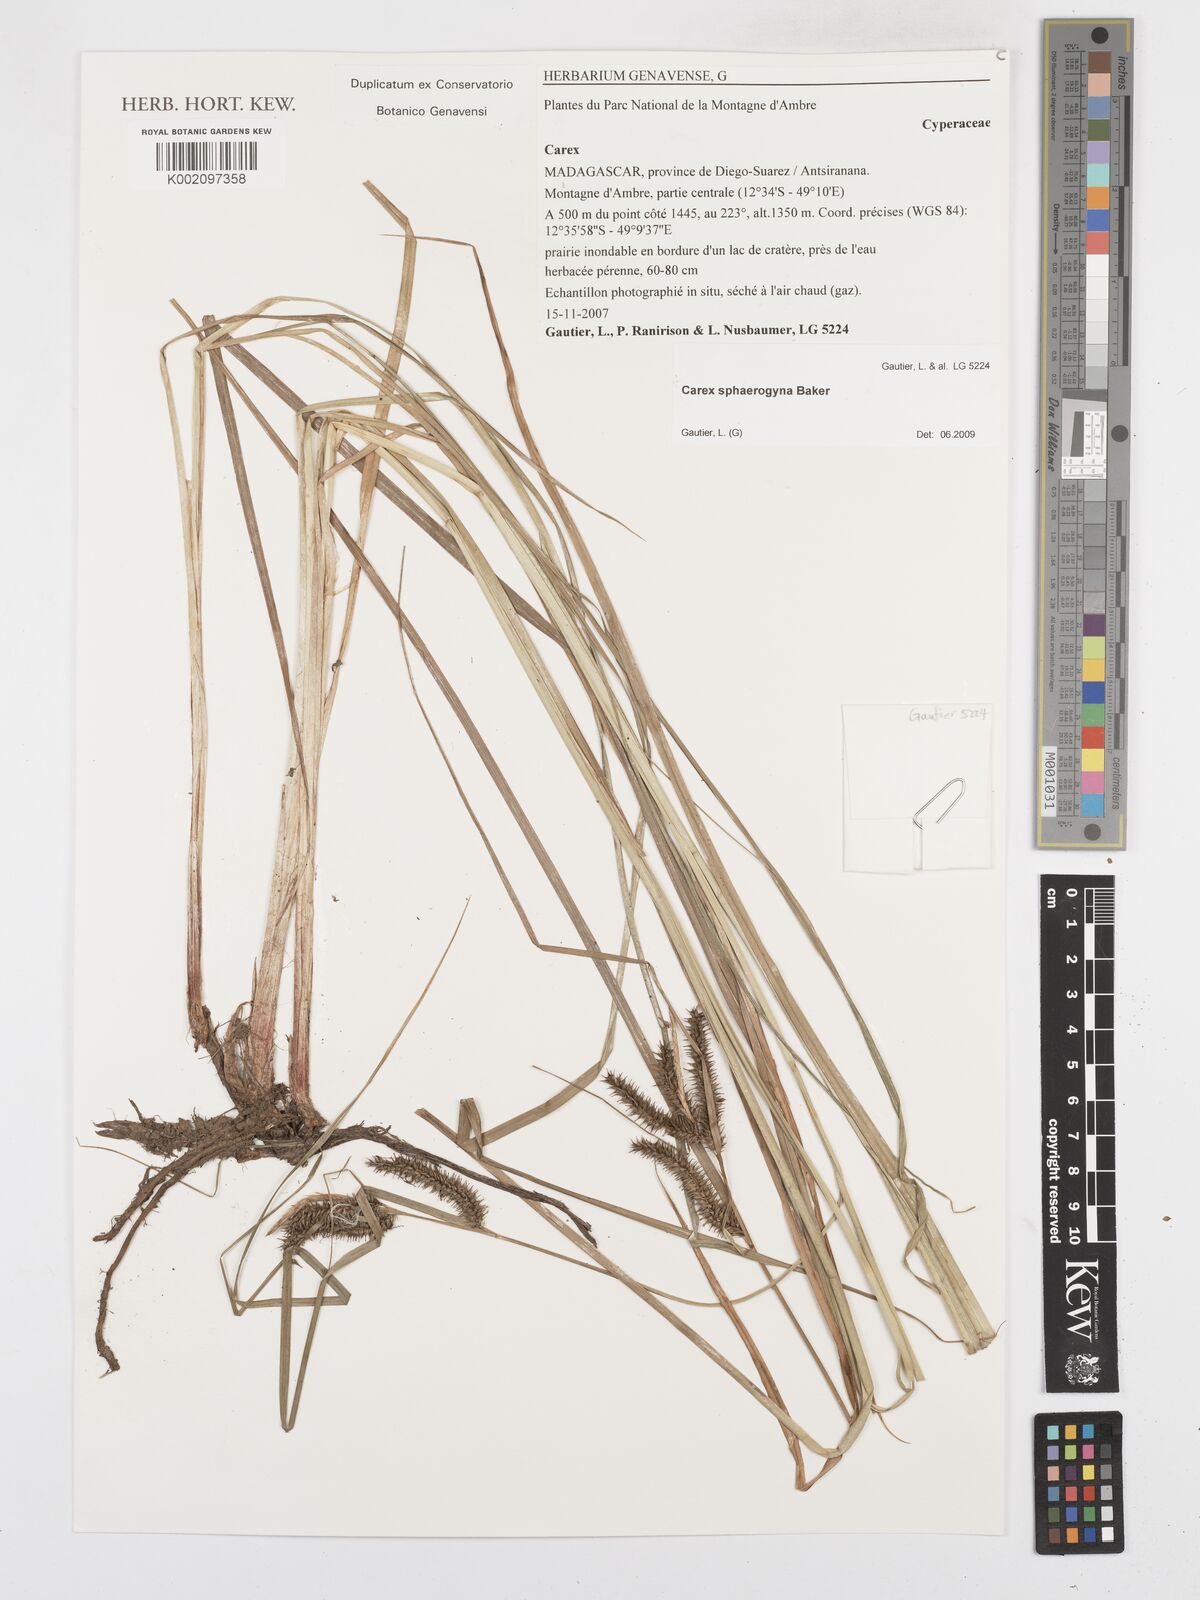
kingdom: Plantae
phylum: Tracheophyta
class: Liliopsida
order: Poales
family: Cyperaceae
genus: Carex
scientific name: Carex sphaerogyna
